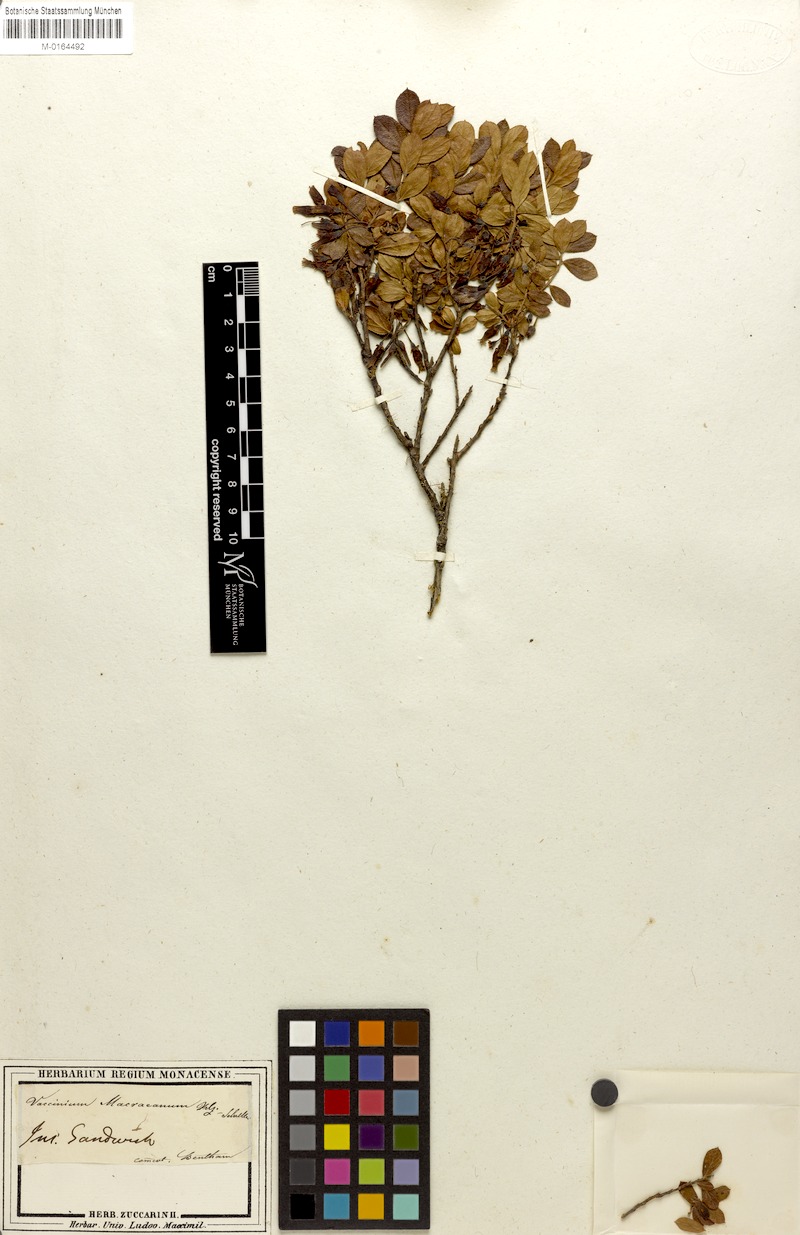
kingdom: Plantae
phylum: Tracheophyta
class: Magnoliopsida
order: Ericales
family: Ericaceae
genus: Vaccinium
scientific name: Vaccinium reticulatum
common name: Ohelo
